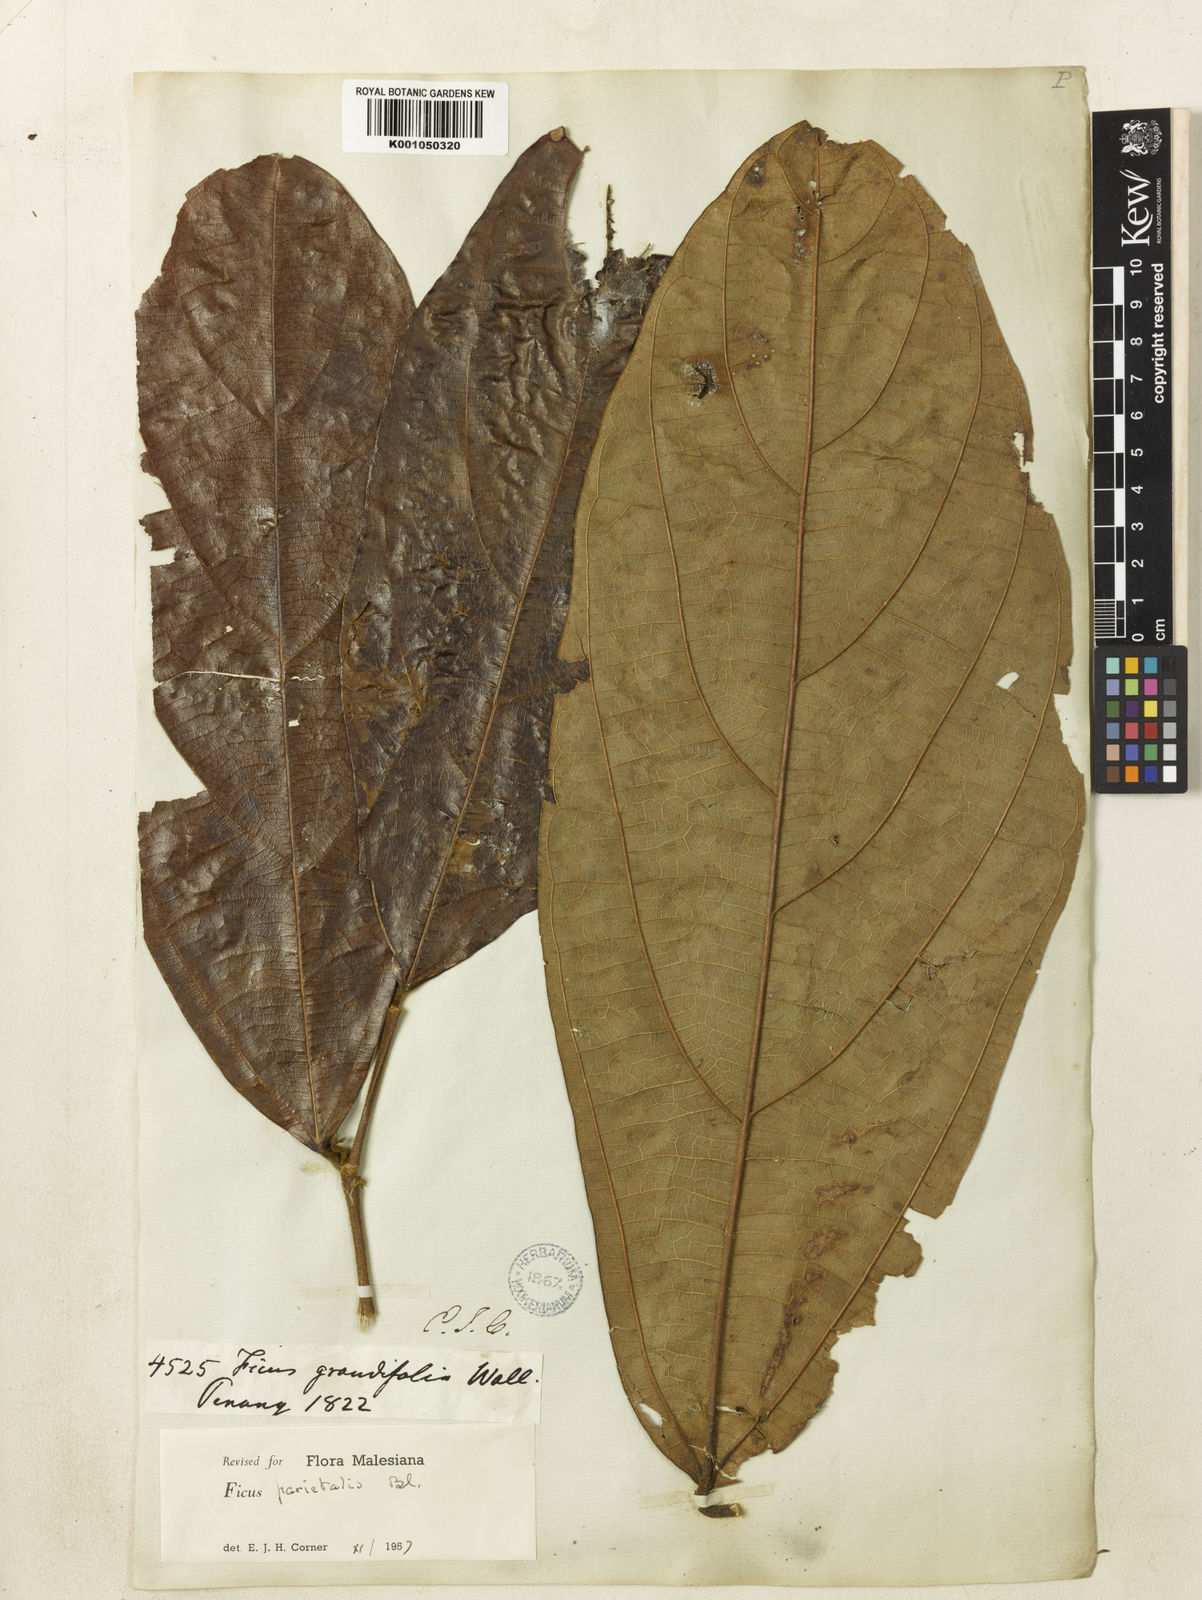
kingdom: Plantae
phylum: Tracheophyta
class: Magnoliopsida
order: Rosales
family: Moraceae
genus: Ficus
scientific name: Ficus parietalis
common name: Sharp fig
